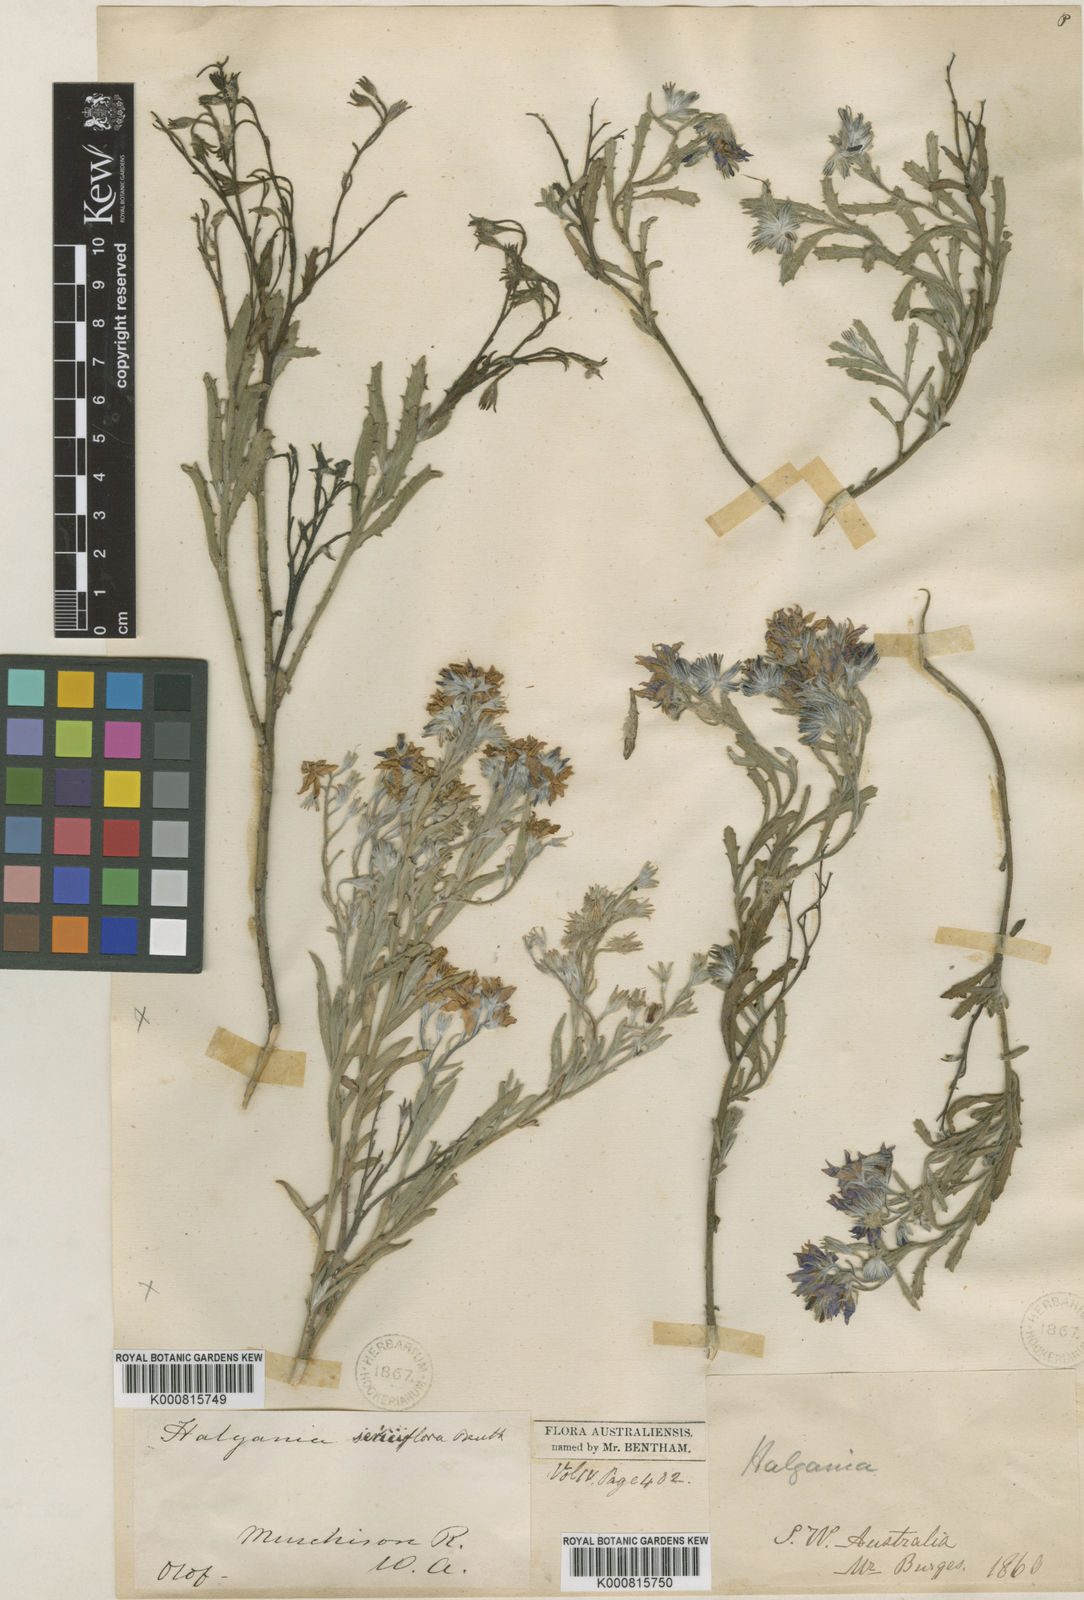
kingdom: Plantae
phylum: Tracheophyta
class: Magnoliopsida
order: Boraginales
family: Ehretiaceae
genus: Halgania
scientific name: Halgania sericiflora
